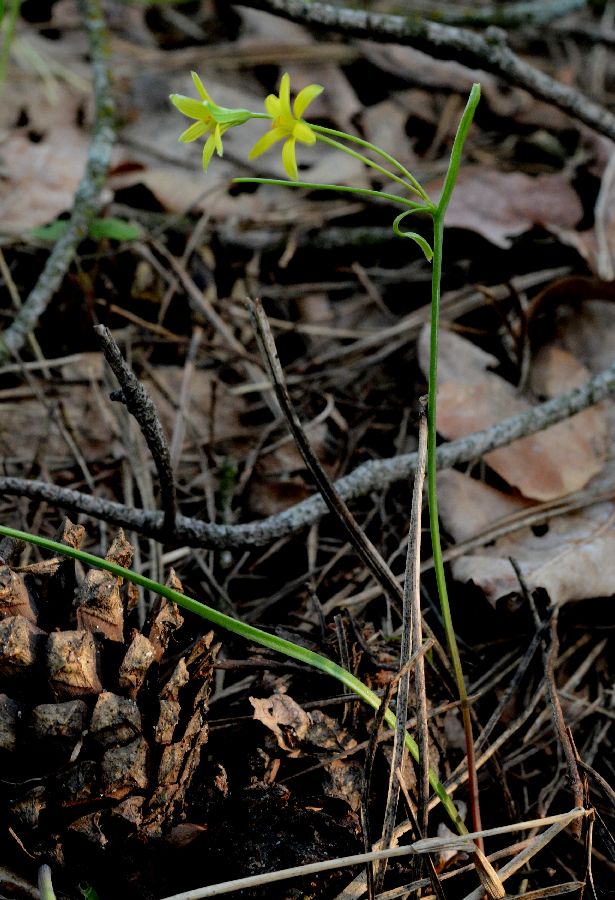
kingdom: Plantae
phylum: Tracheophyta
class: Liliopsida
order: Liliales
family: Liliaceae
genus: Gagea
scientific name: Gagea fragifera
